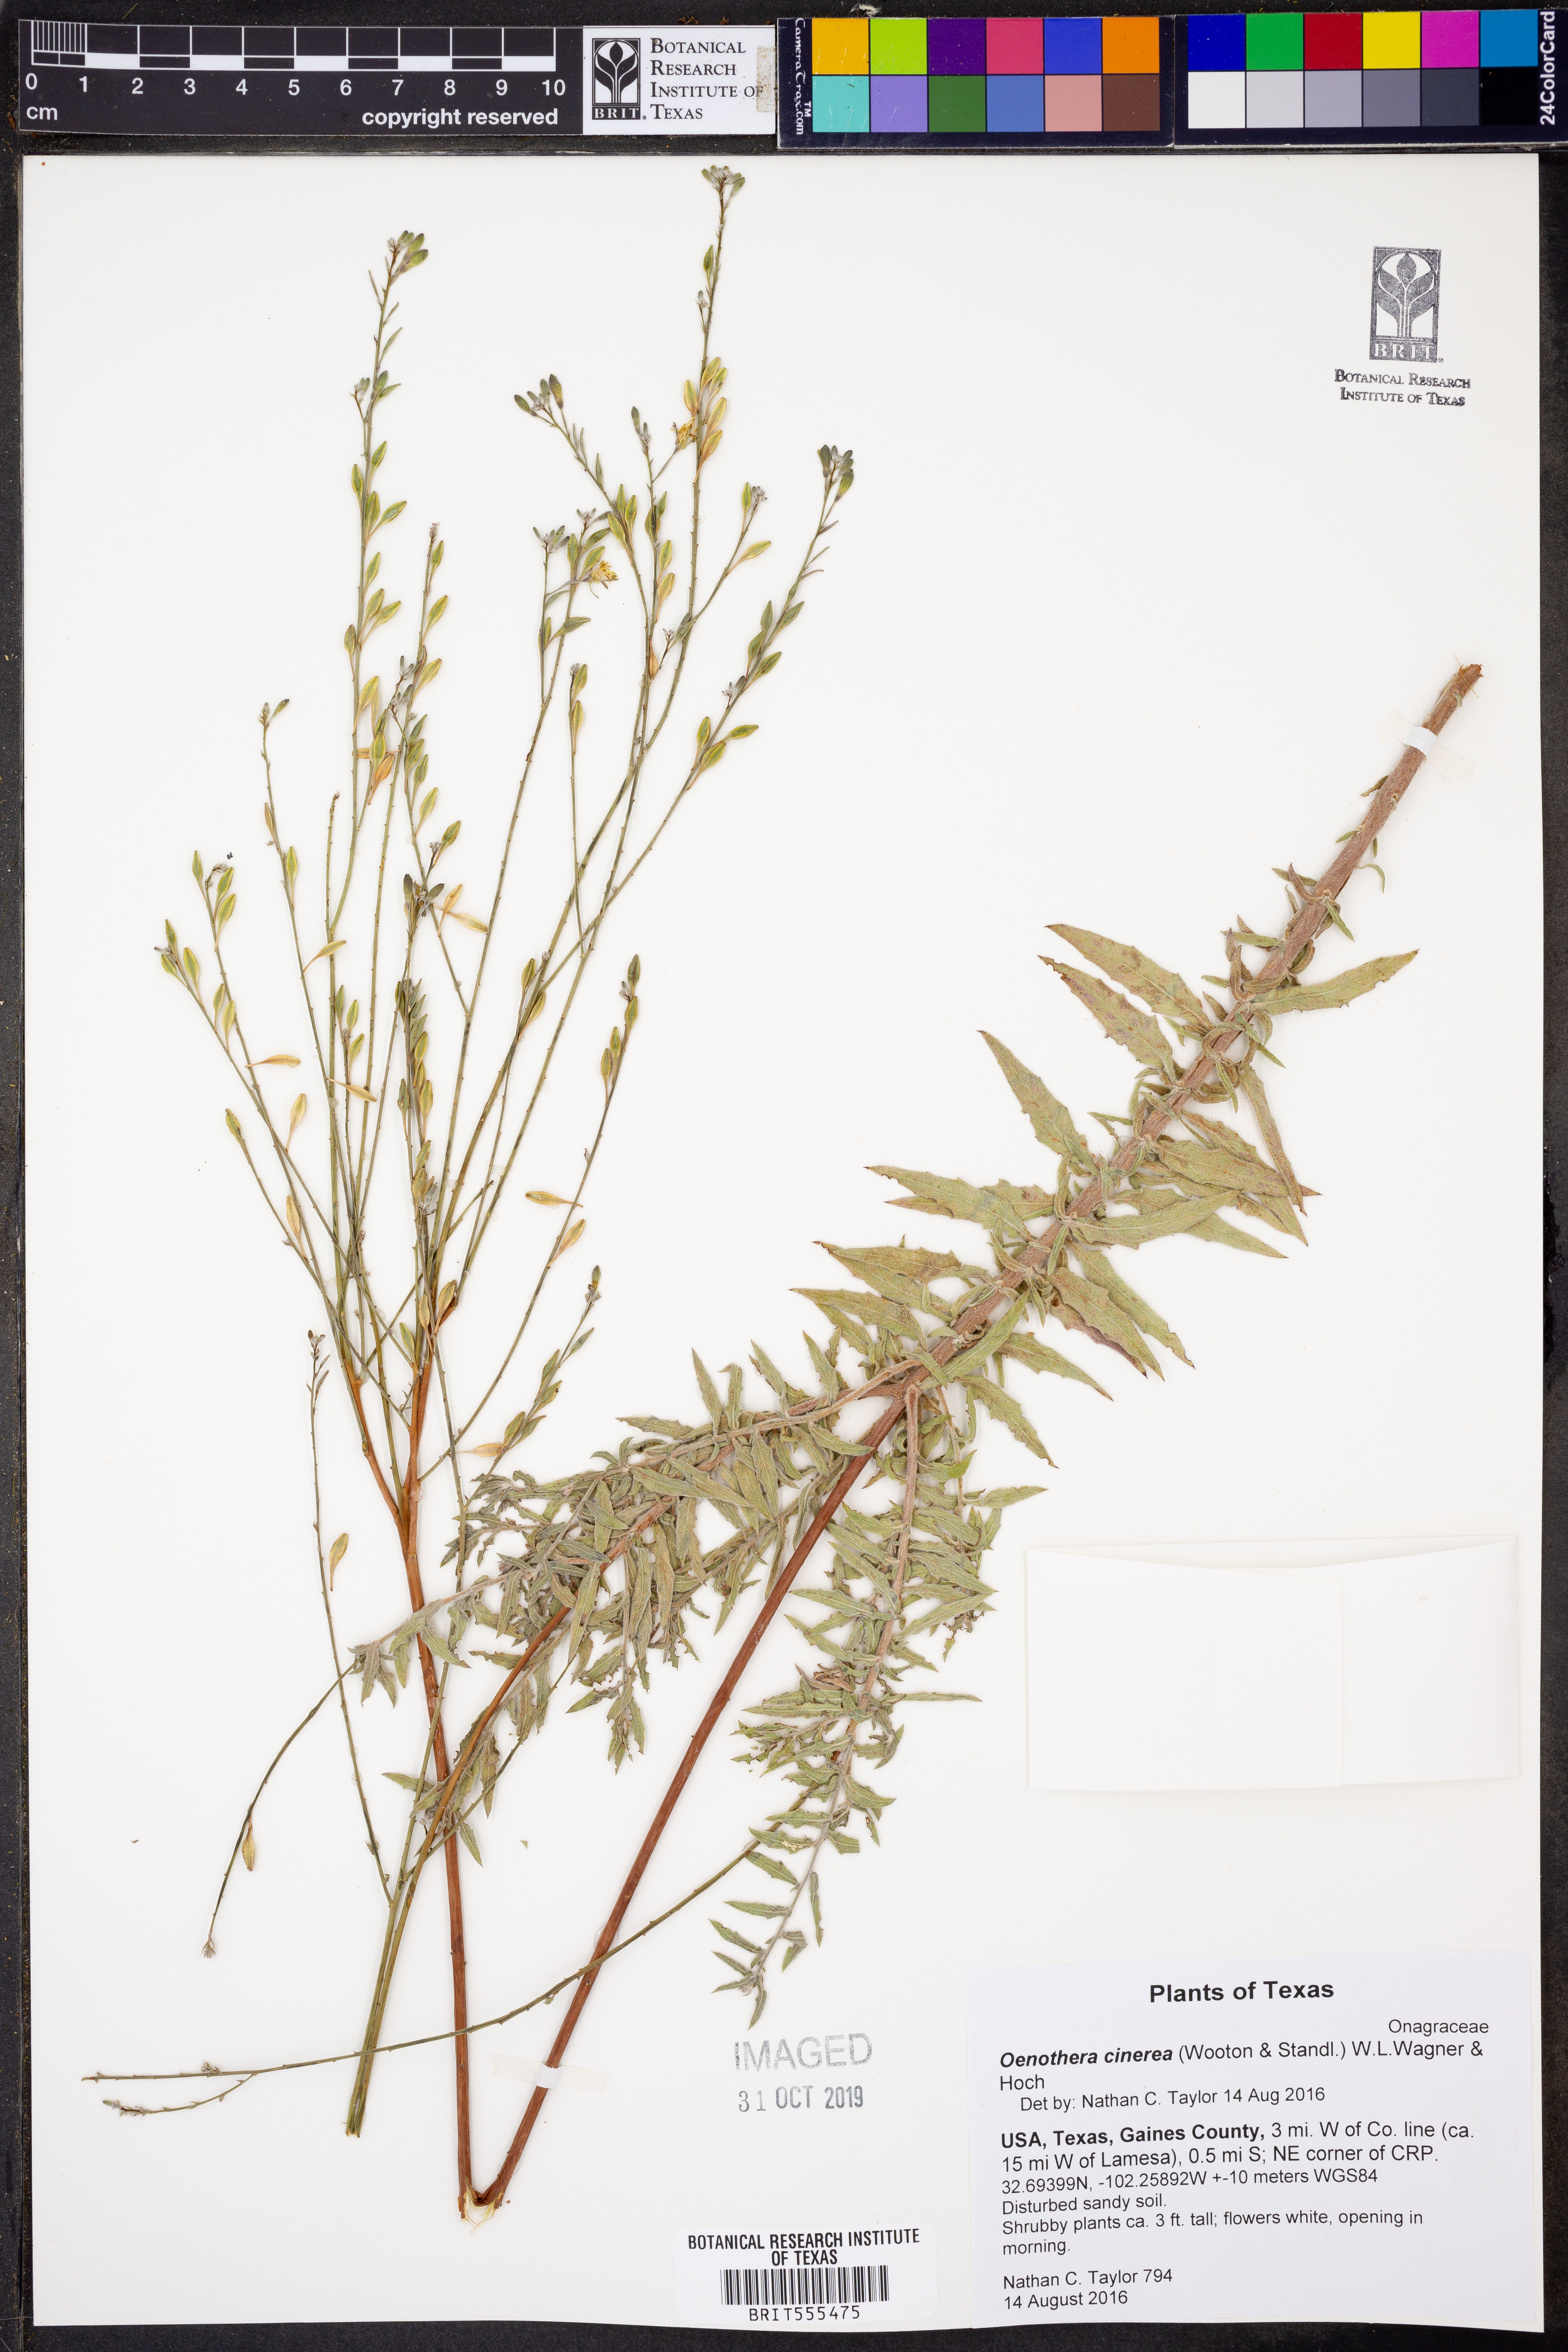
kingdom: Plantae
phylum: Tracheophyta
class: Magnoliopsida
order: Myrtales
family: Onagraceae
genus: Oenothera
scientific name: Oenothera cinerea
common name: Woolly beeblossom
